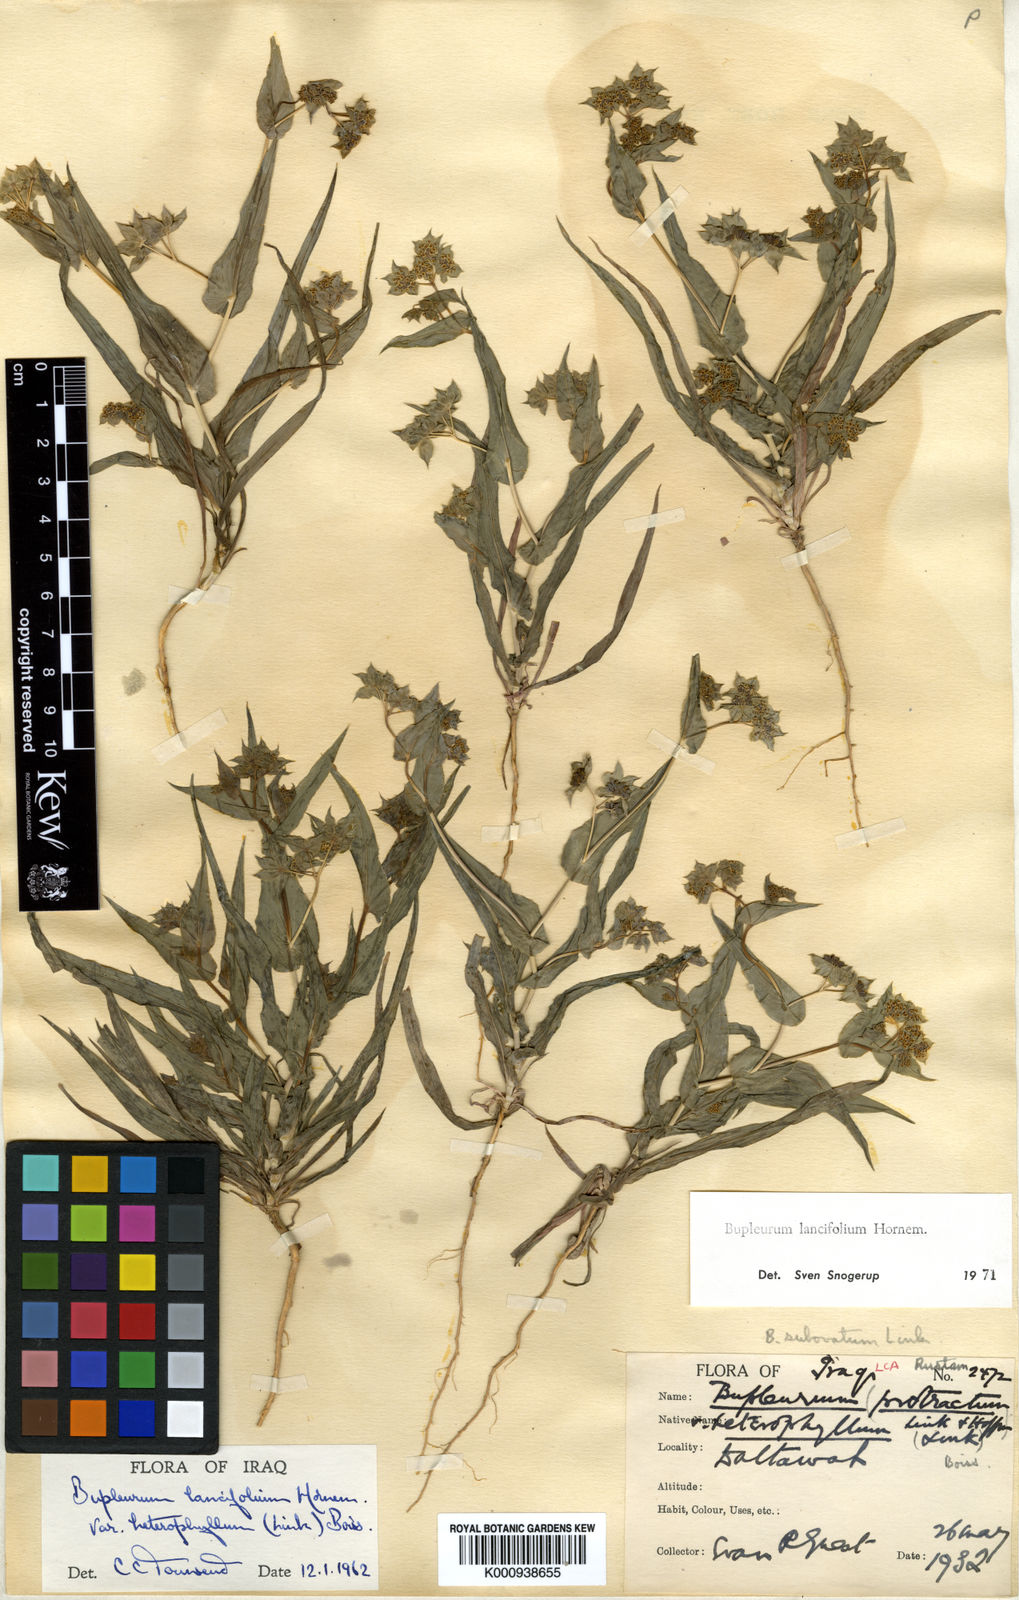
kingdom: Plantae
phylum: Tracheophyta
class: Magnoliopsida
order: Apiales
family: Apiaceae
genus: Bupleurum
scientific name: Bupleurum lancifolium
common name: False thorow-wax
